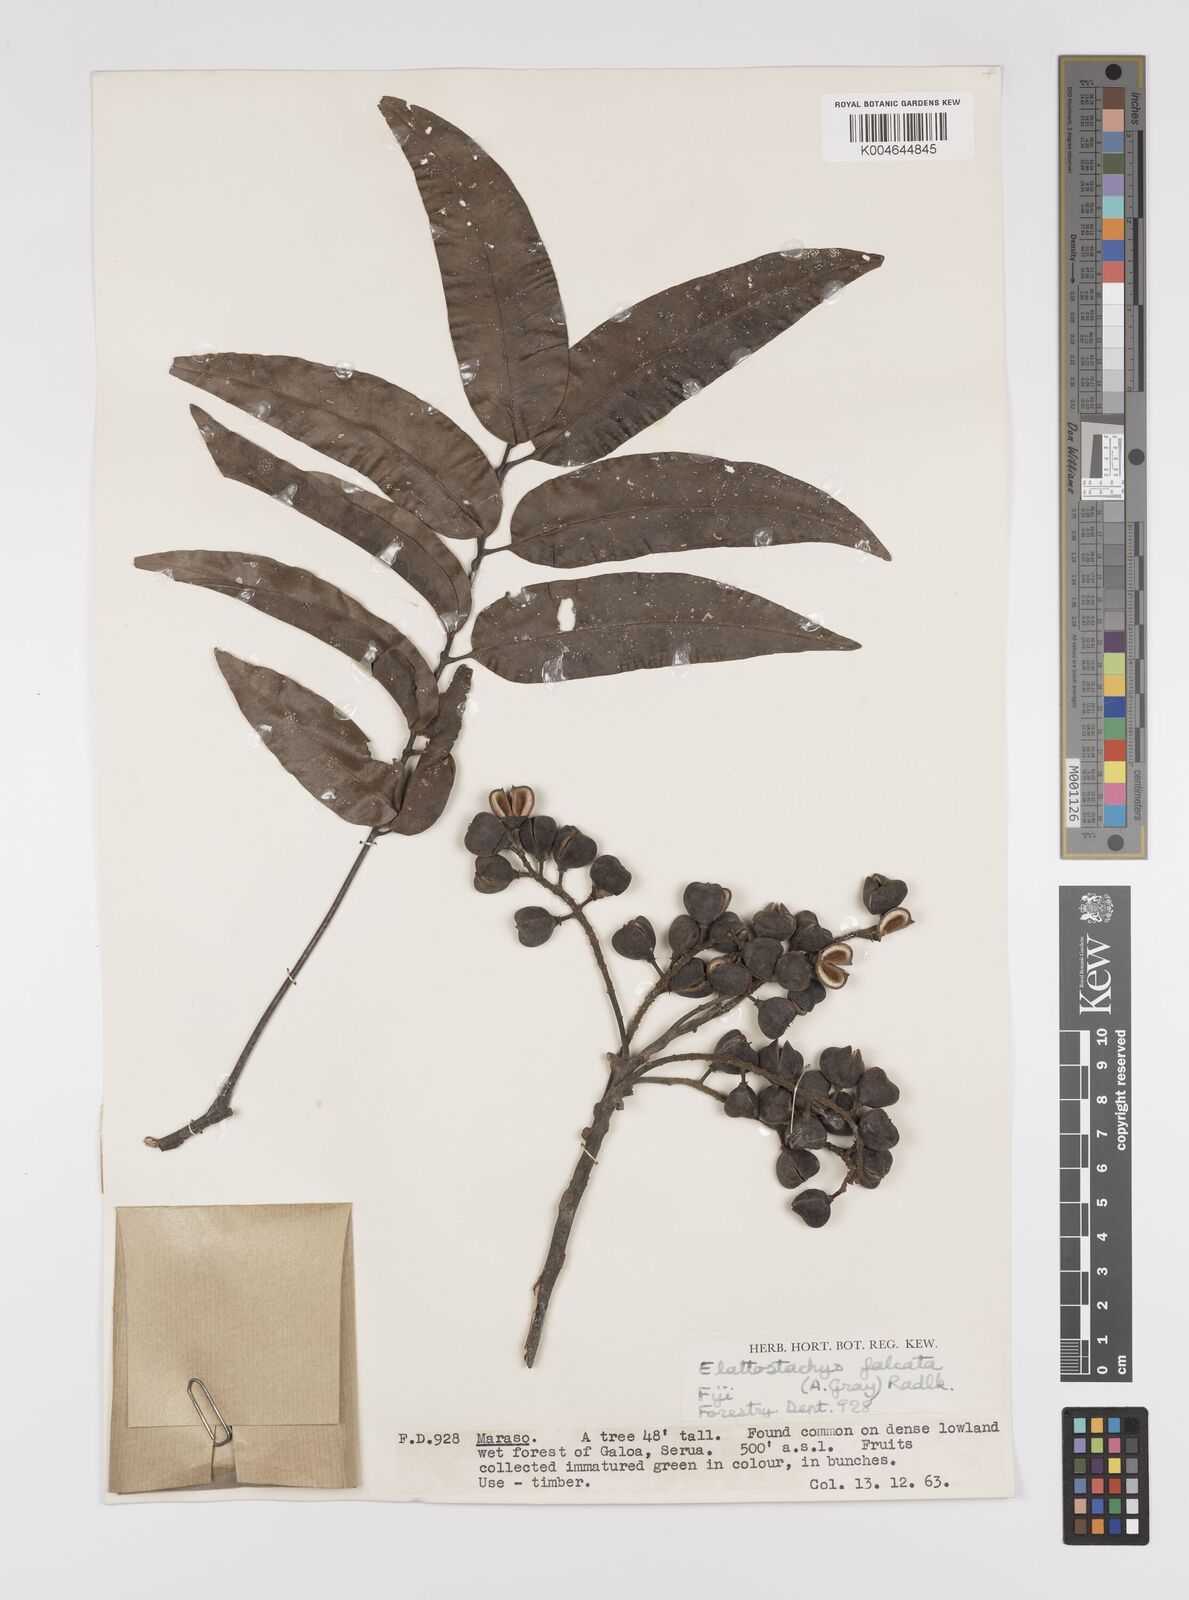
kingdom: Plantae
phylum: Tracheophyta
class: Magnoliopsida
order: Sapindales
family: Sapindaceae
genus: Elattostachys
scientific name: Elattostachys apetala
